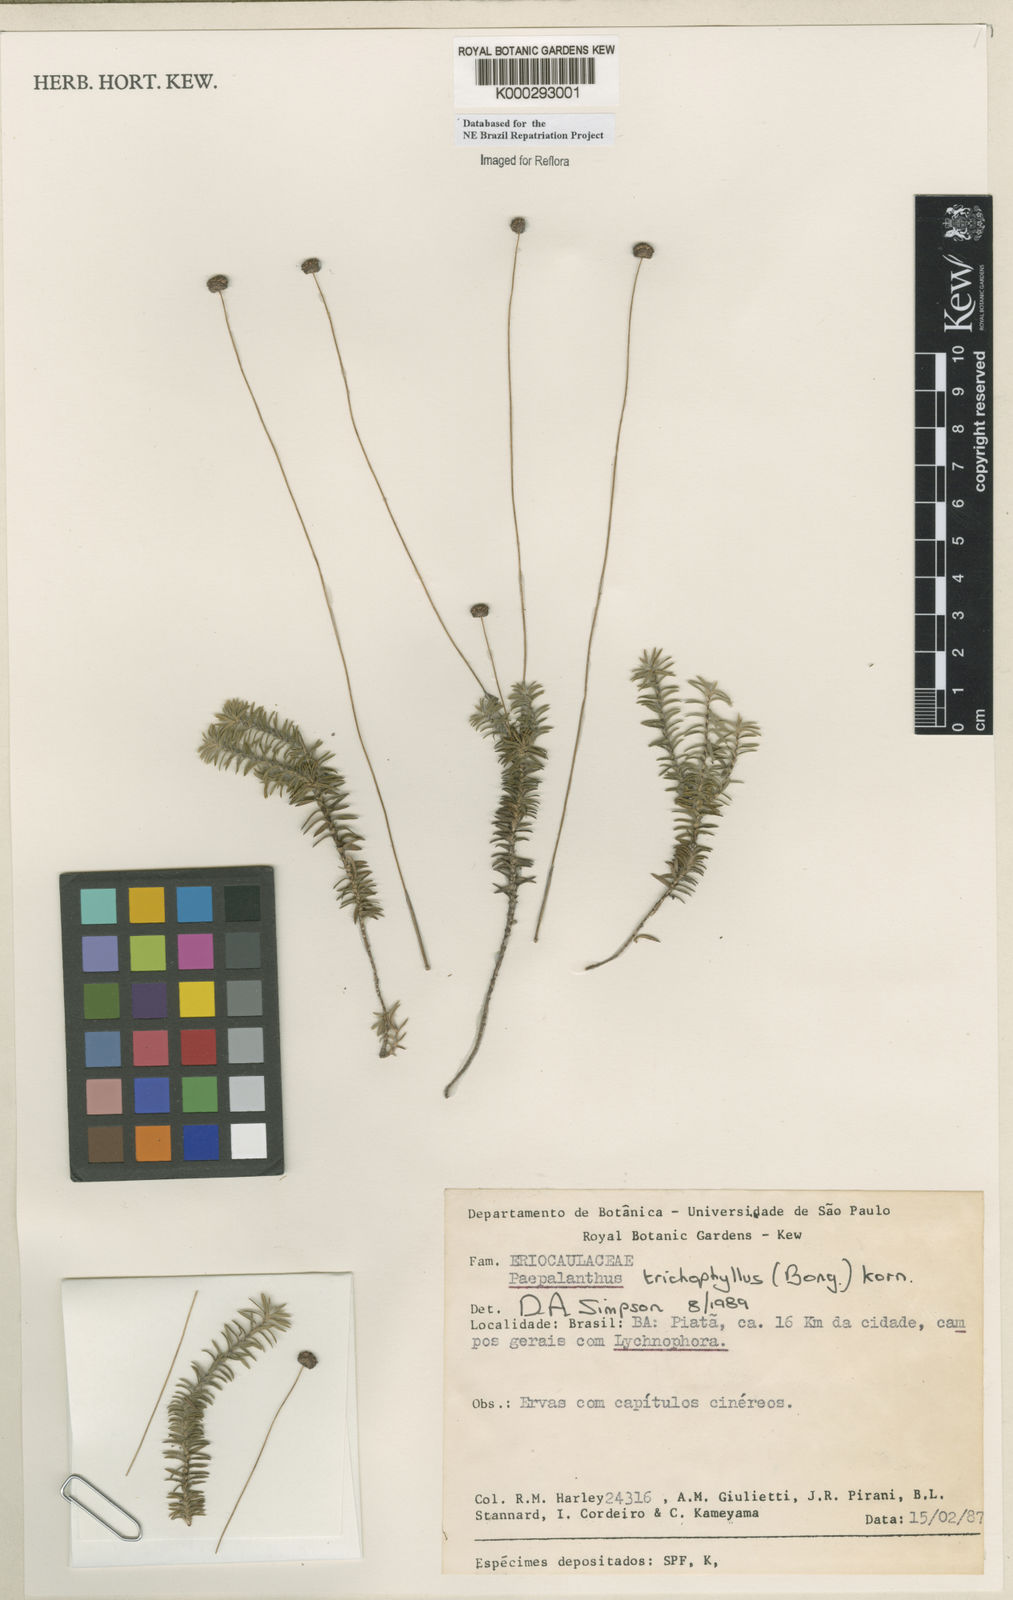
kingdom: Plantae
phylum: Tracheophyta
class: Liliopsida
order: Poales
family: Eriocaulaceae
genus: Paepalanthus
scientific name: Paepalanthus
